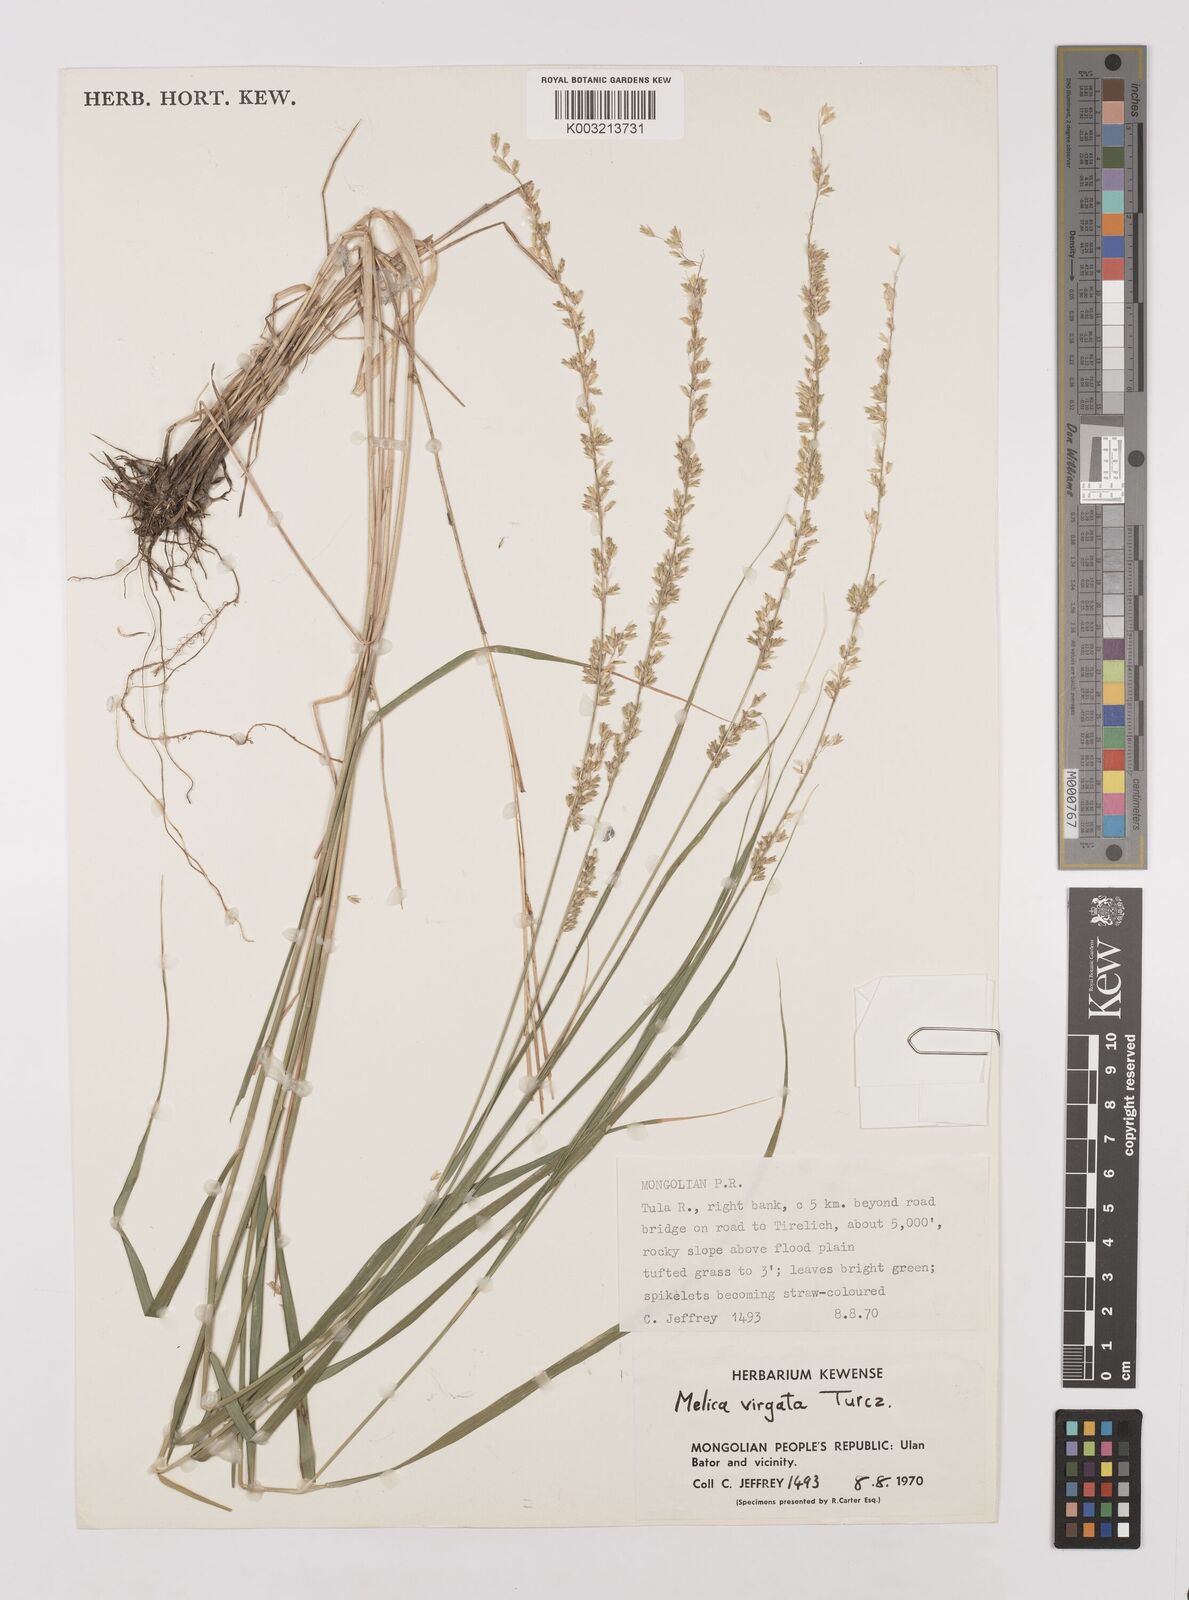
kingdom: Plantae
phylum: Tracheophyta
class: Liliopsida
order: Poales
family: Poaceae
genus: Melica
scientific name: Melica virgata
